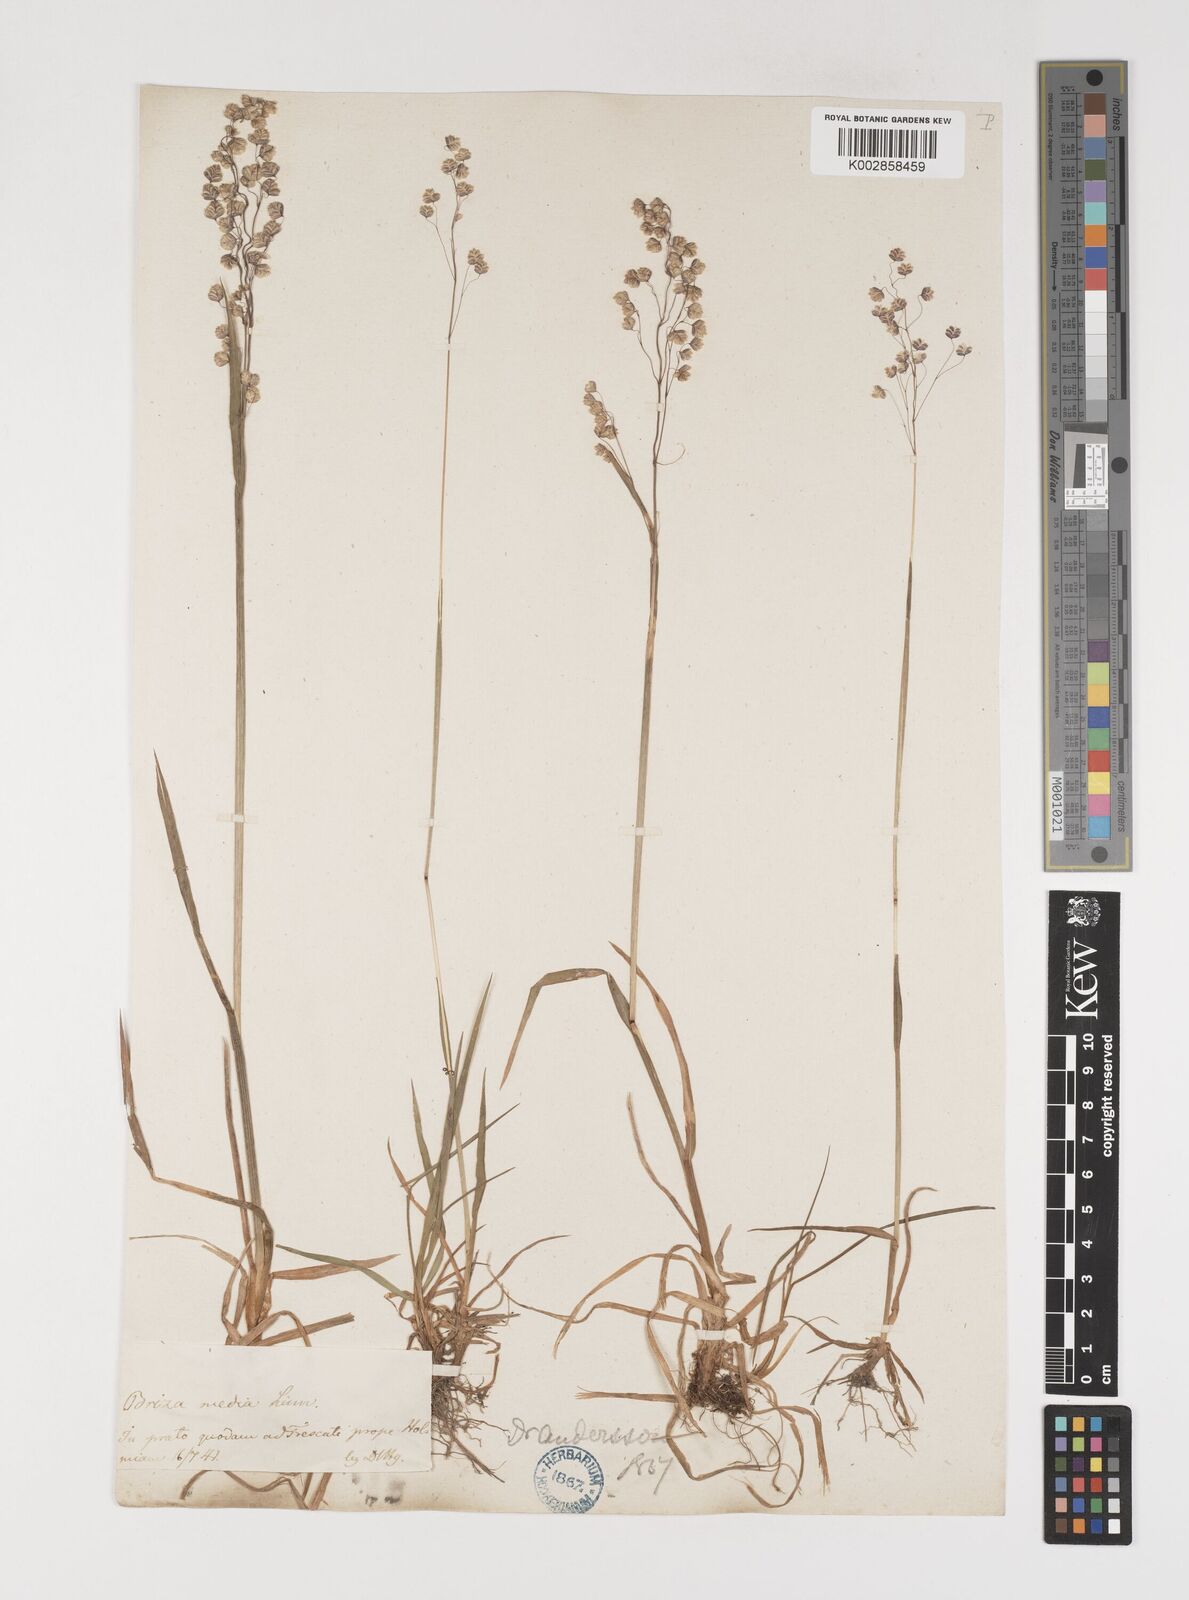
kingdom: Plantae
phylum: Tracheophyta
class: Liliopsida
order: Poales
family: Poaceae
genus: Briza
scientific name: Briza media
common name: Quaking grass
